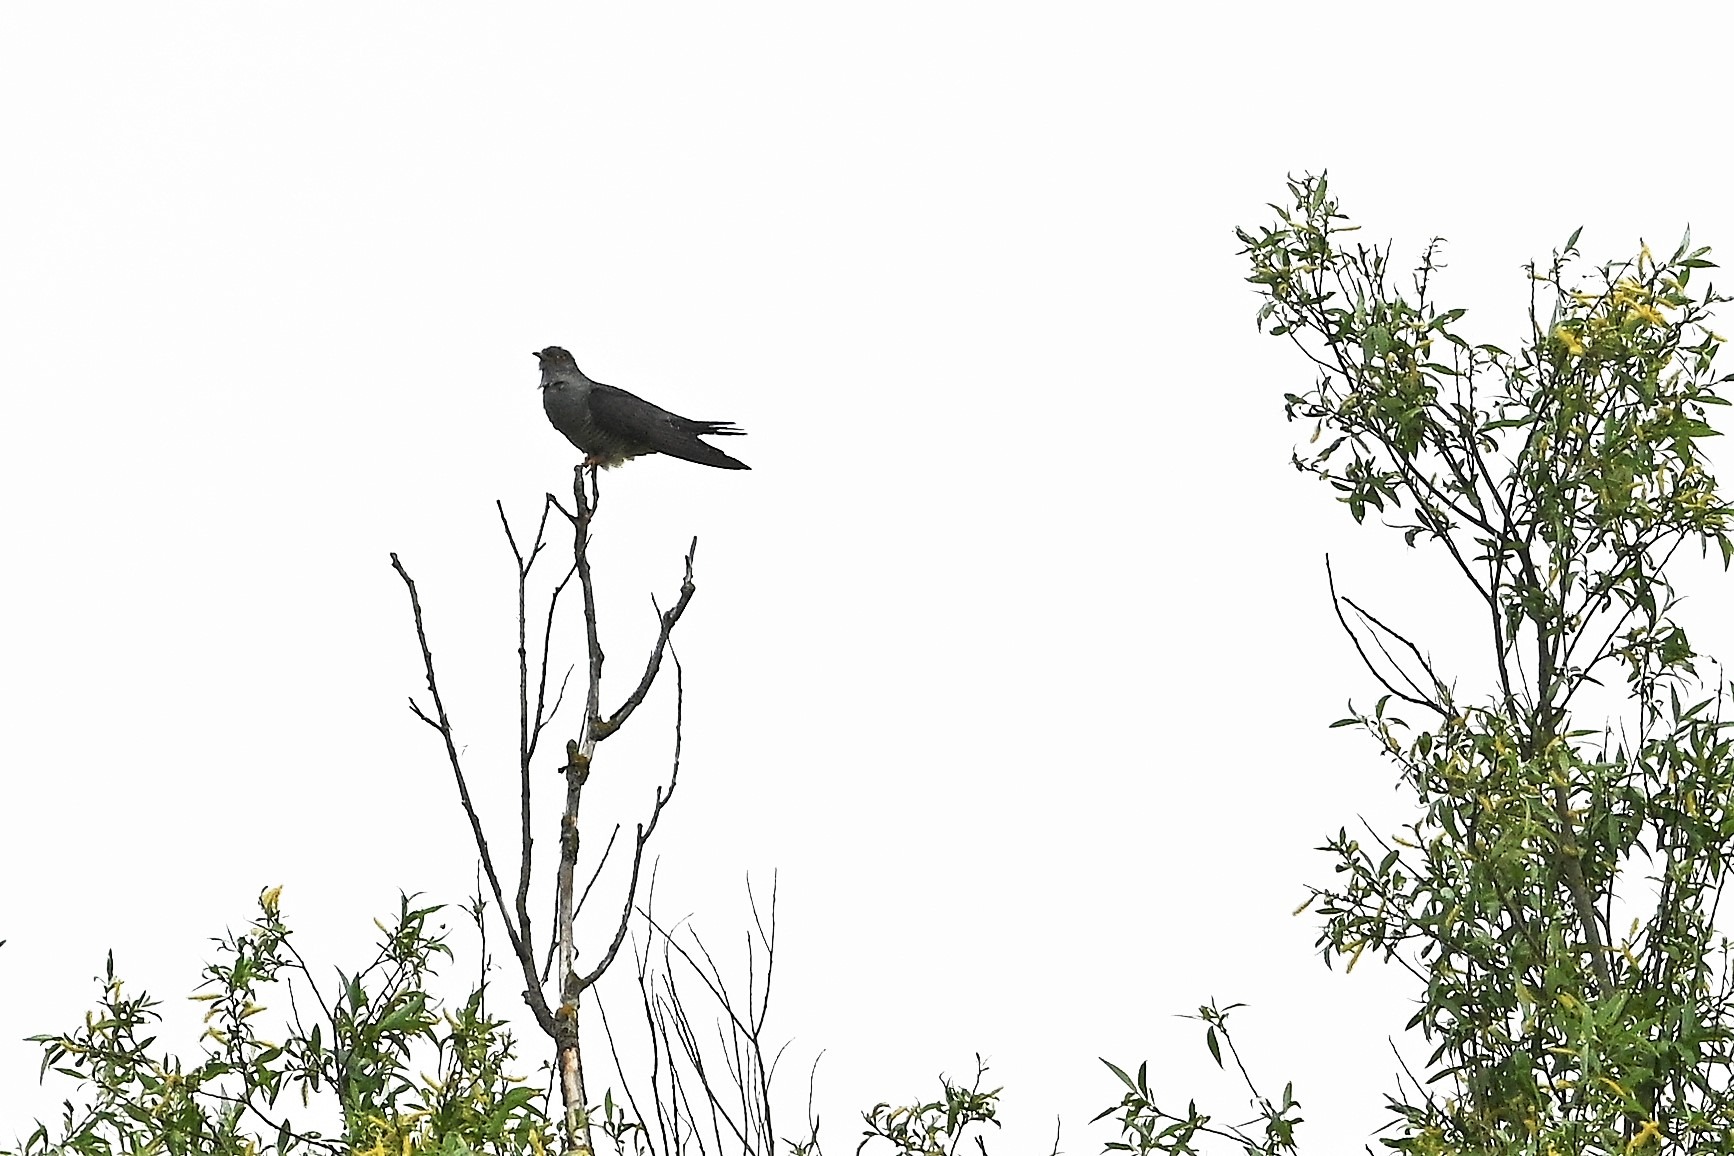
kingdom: Animalia
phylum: Chordata
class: Aves
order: Cuculiformes
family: Cuculidae
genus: Cuculus
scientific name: Cuculus canorus
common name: Gøg
